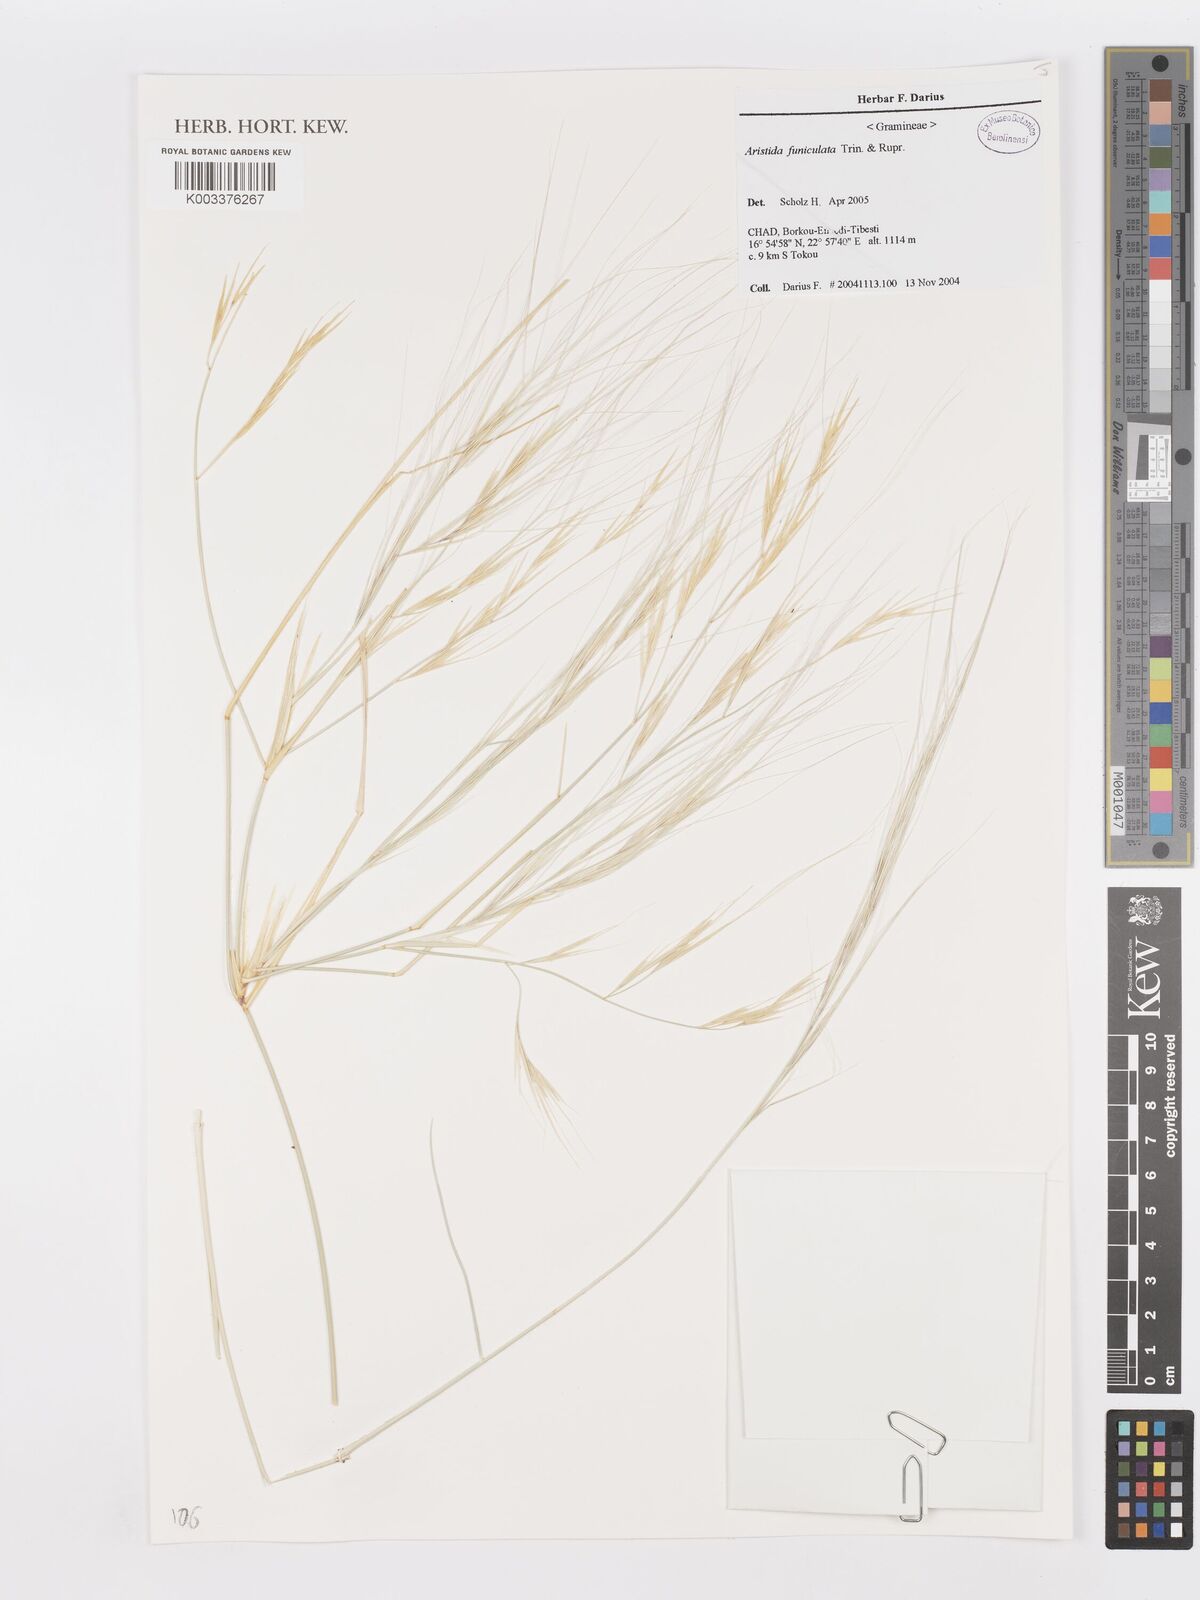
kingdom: Plantae
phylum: Tracheophyta
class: Liliopsida
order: Poales
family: Poaceae
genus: Aristida
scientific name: Aristida funiculata
